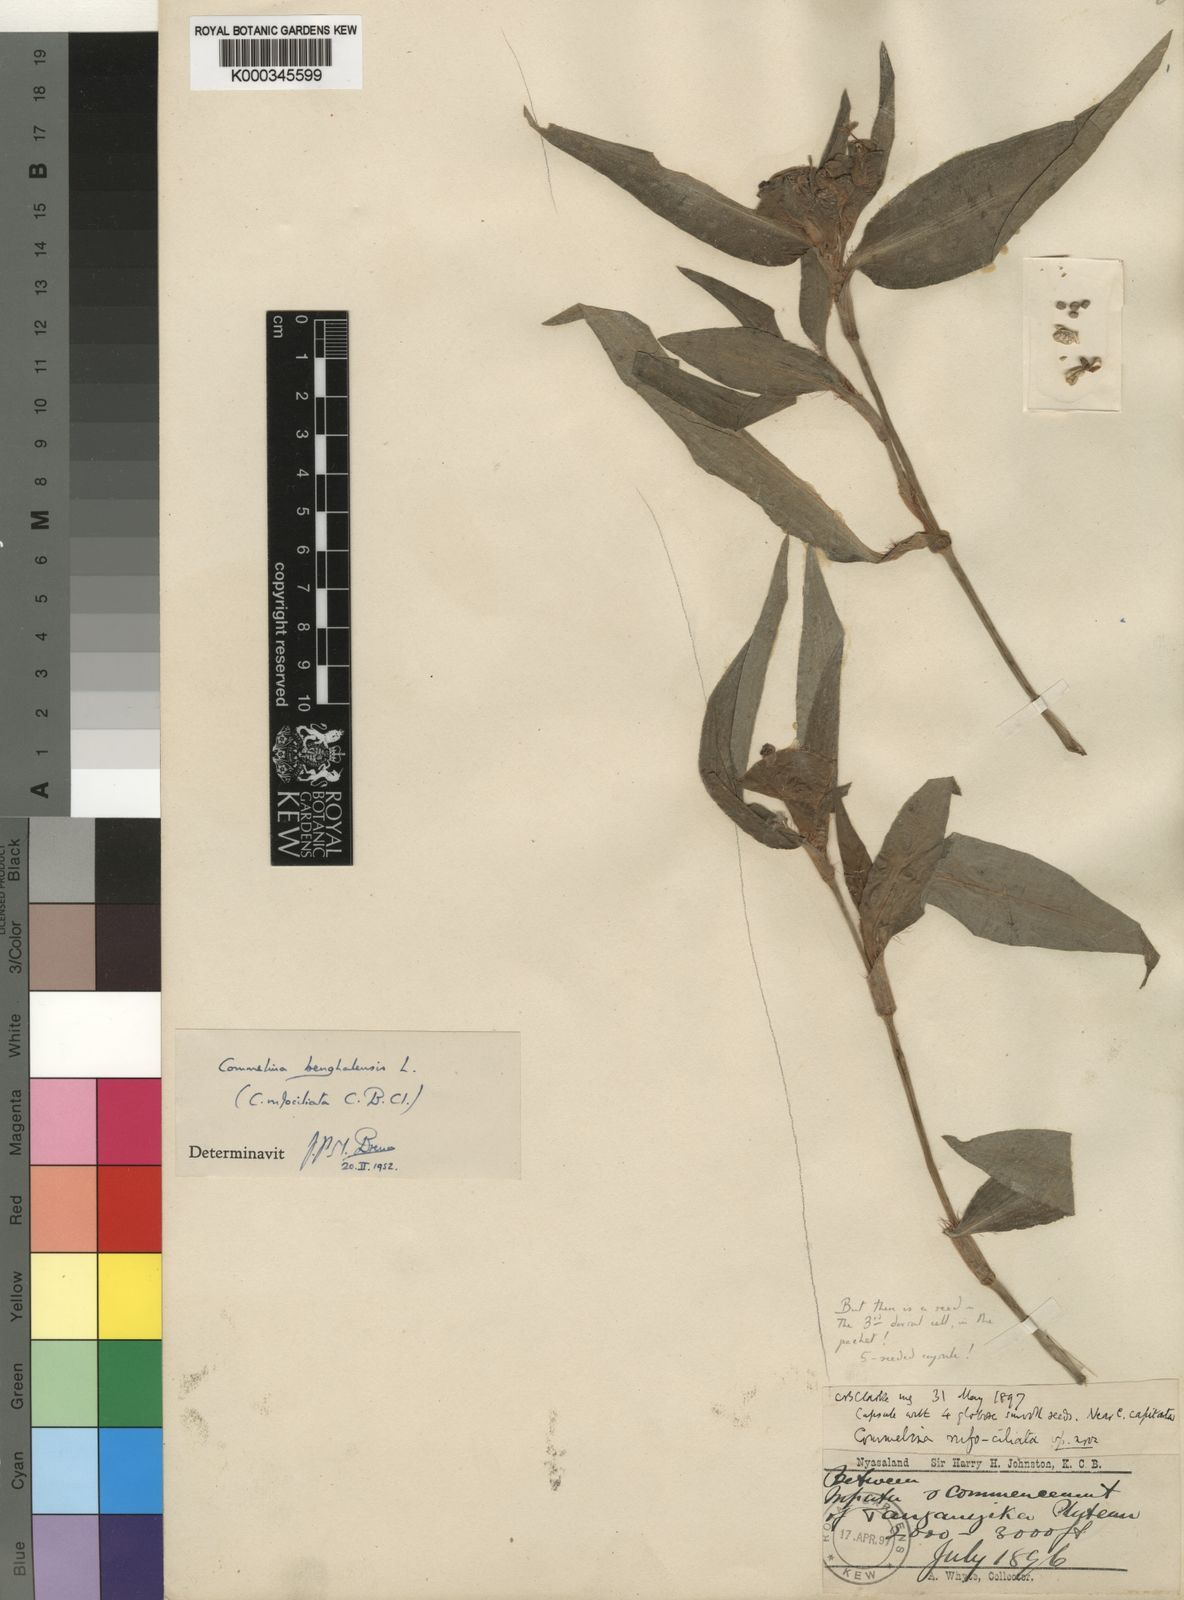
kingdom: Plantae
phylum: Tracheophyta
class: Liliopsida
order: Commelinales
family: Commelinaceae
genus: Commelina
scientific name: Commelina benghalensis
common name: Jio
